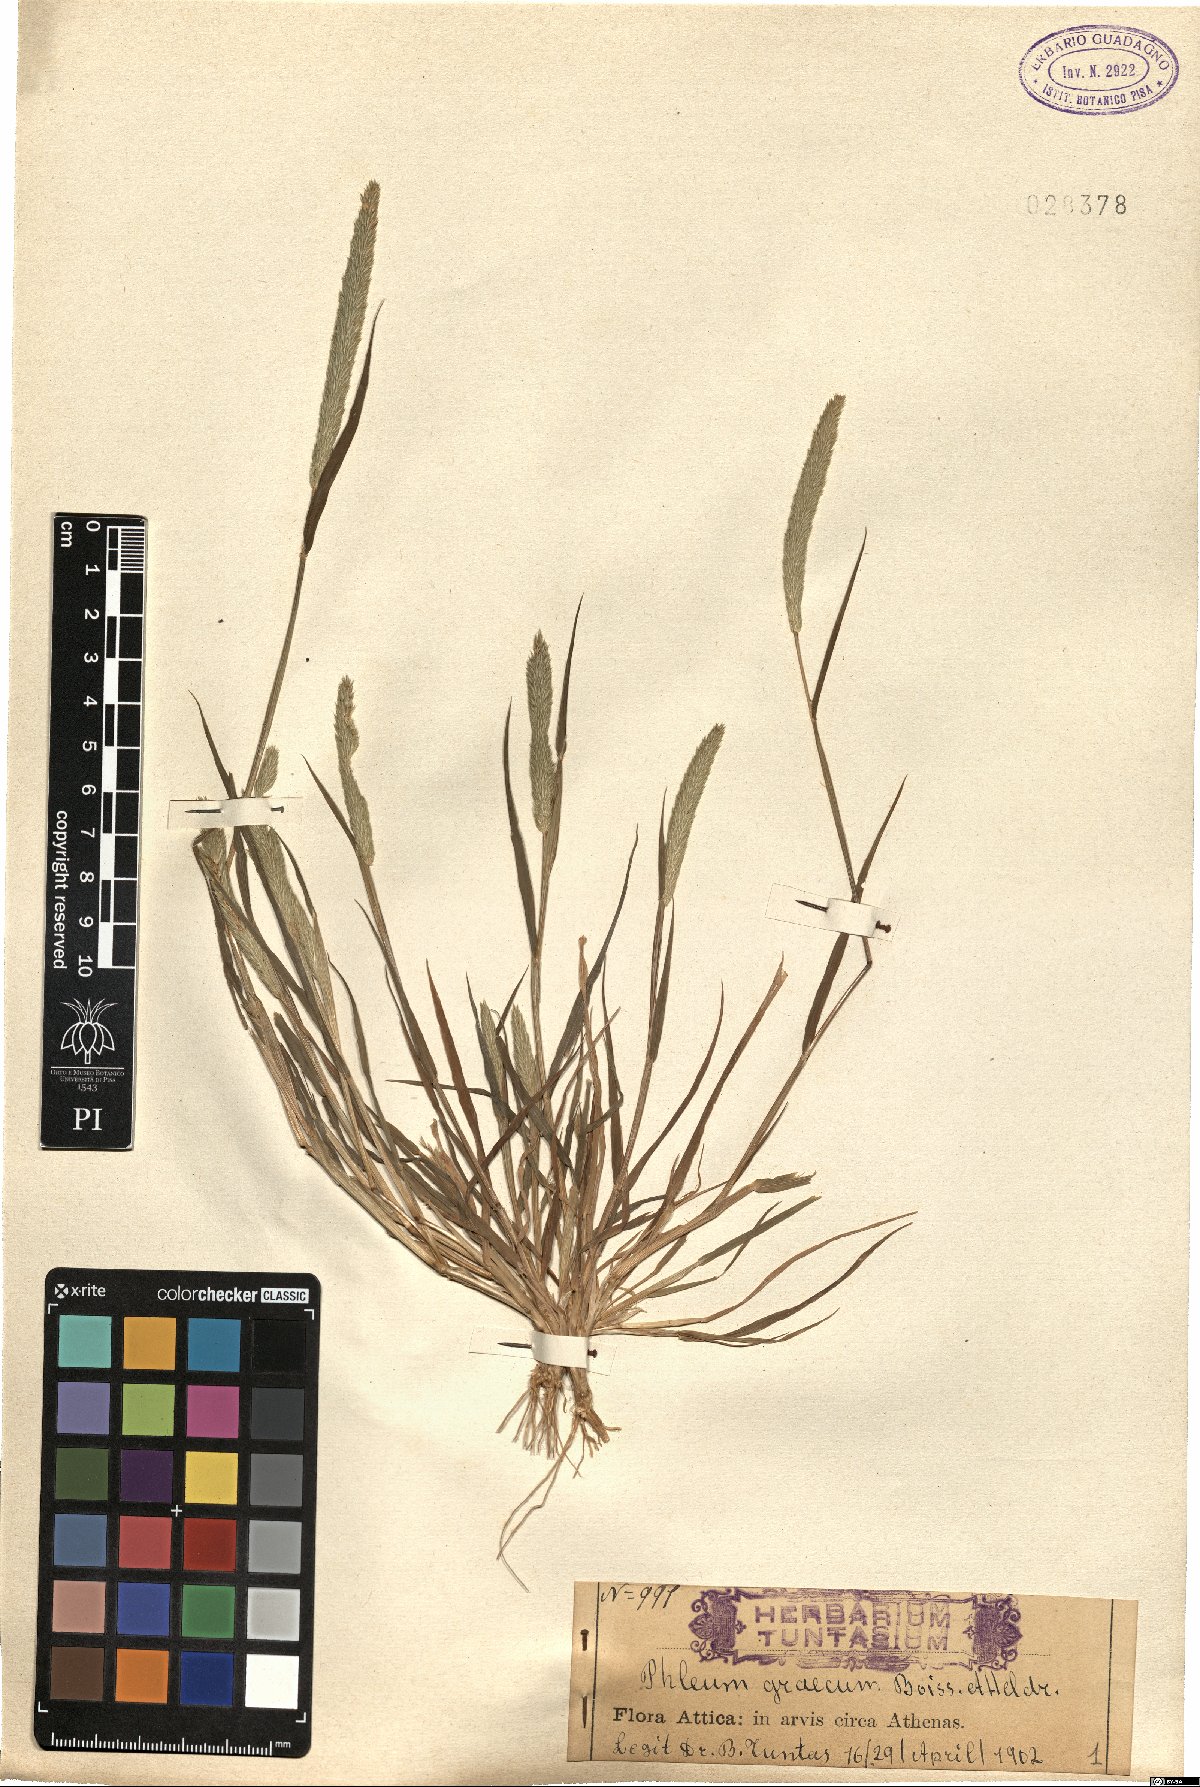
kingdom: Plantae
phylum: Tracheophyta
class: Liliopsida
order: Poales
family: Poaceae
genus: Phleum
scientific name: Phleum exaratum
